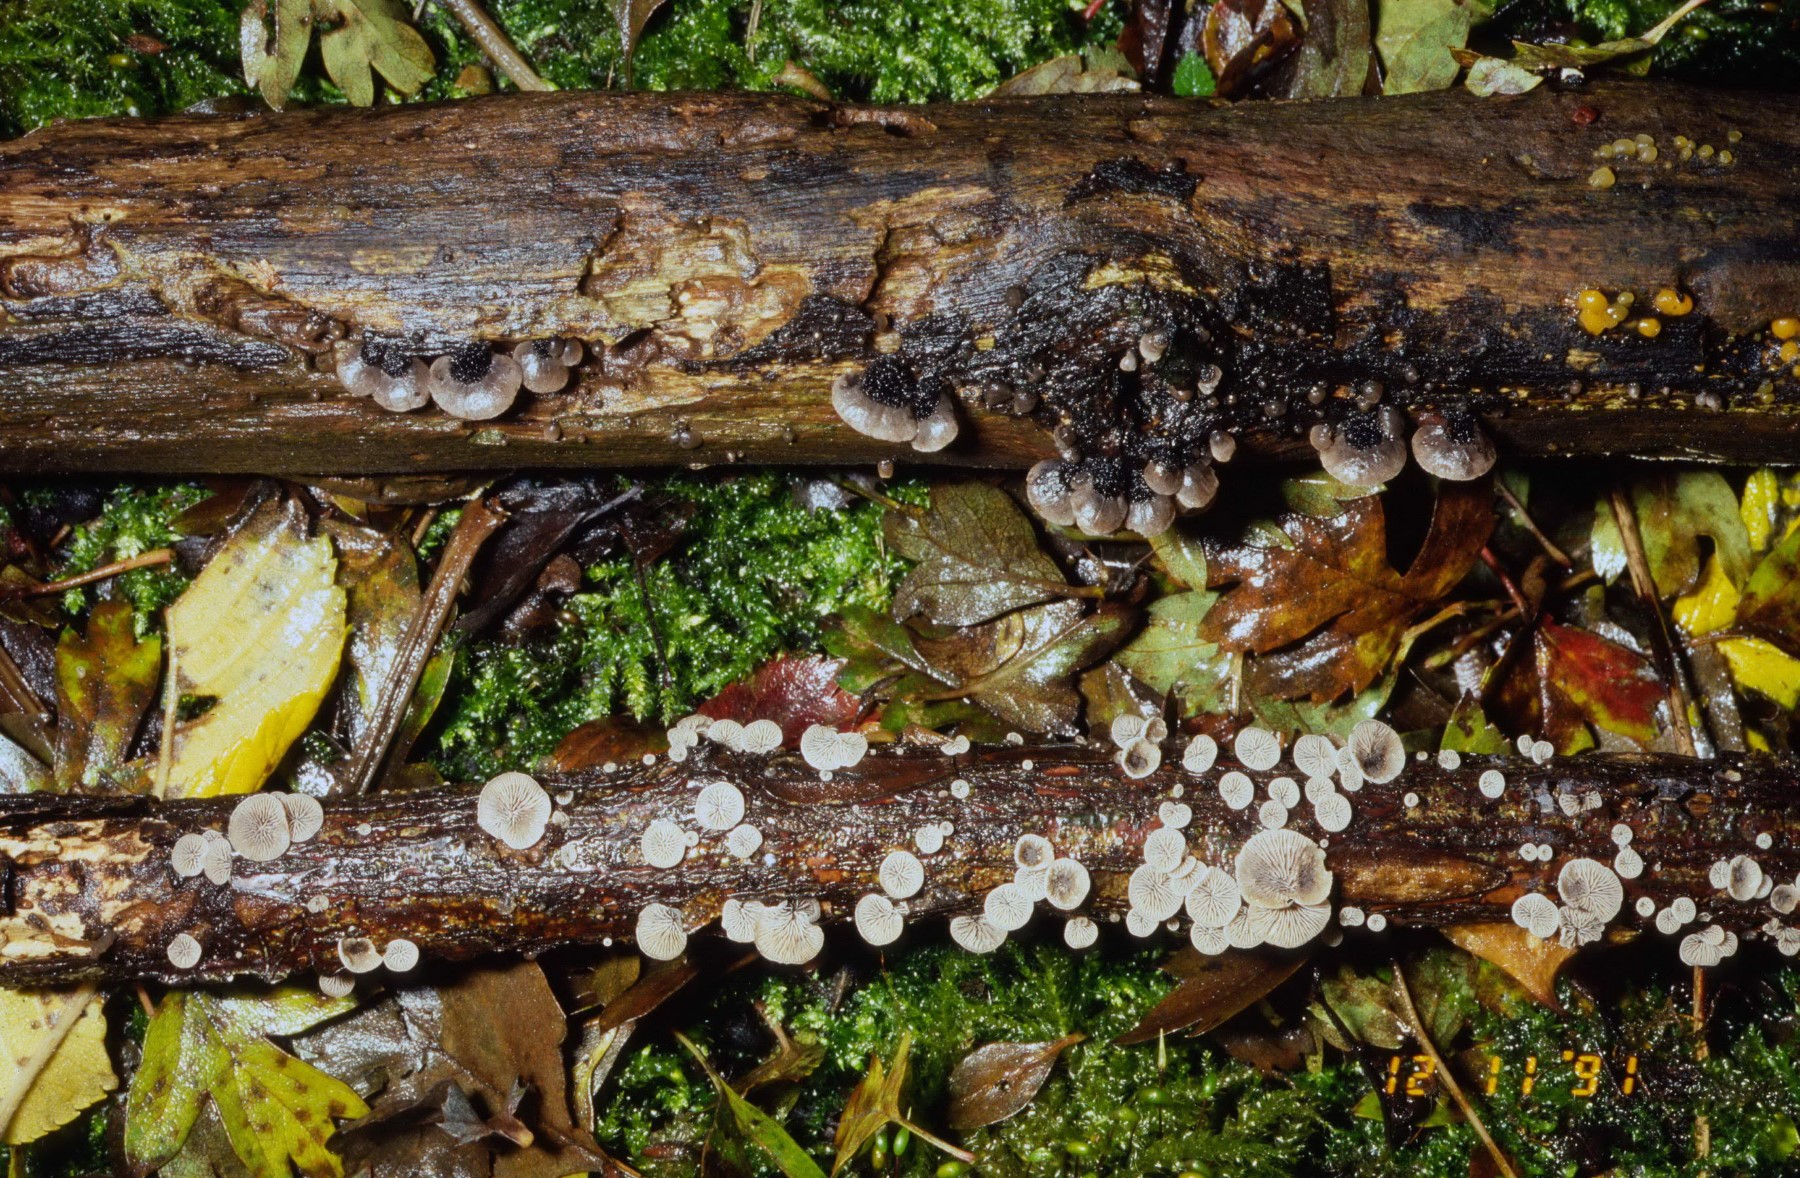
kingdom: Fungi
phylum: Basidiomycota
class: Agaricomycetes
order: Agaricales
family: Pleurotaceae
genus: Resupinatus
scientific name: Resupinatus trichotis
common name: mørkfiltet barkhat
